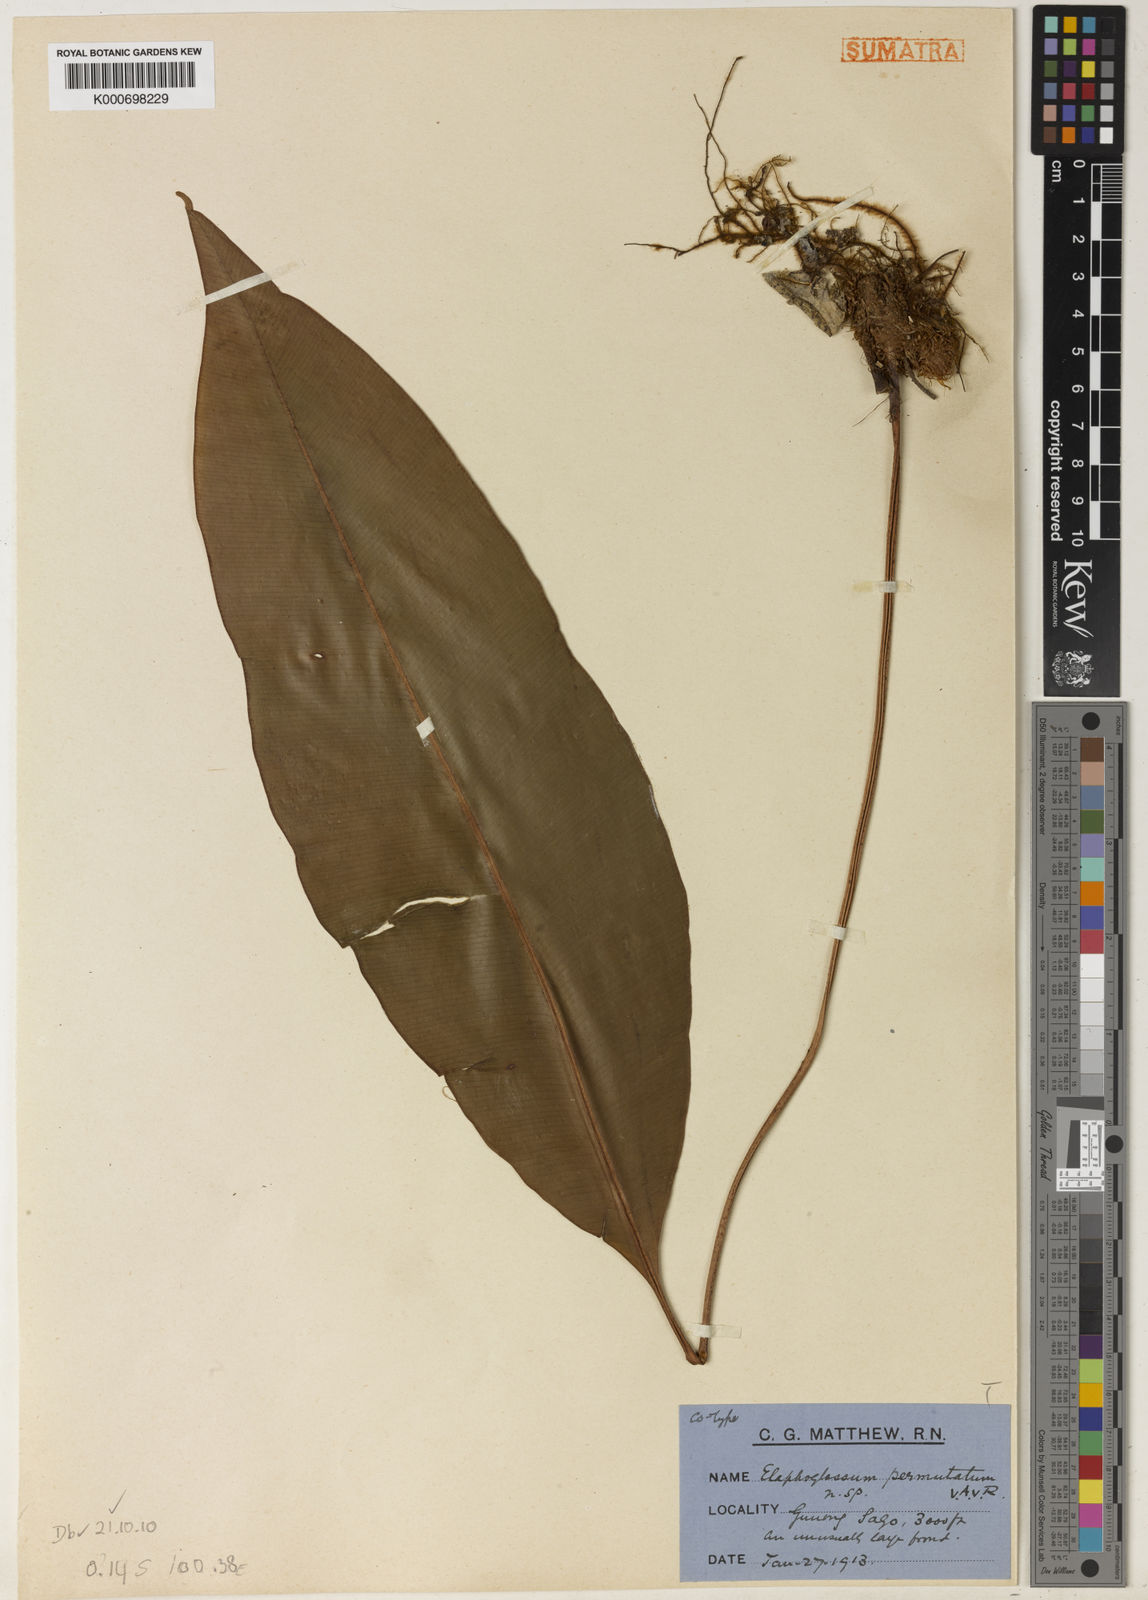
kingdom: Plantae
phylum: Tracheophyta
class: Polypodiopsida
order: Polypodiales
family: Dryopteridaceae
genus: Elaphoglossum
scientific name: Elaphoglossum commutatum
